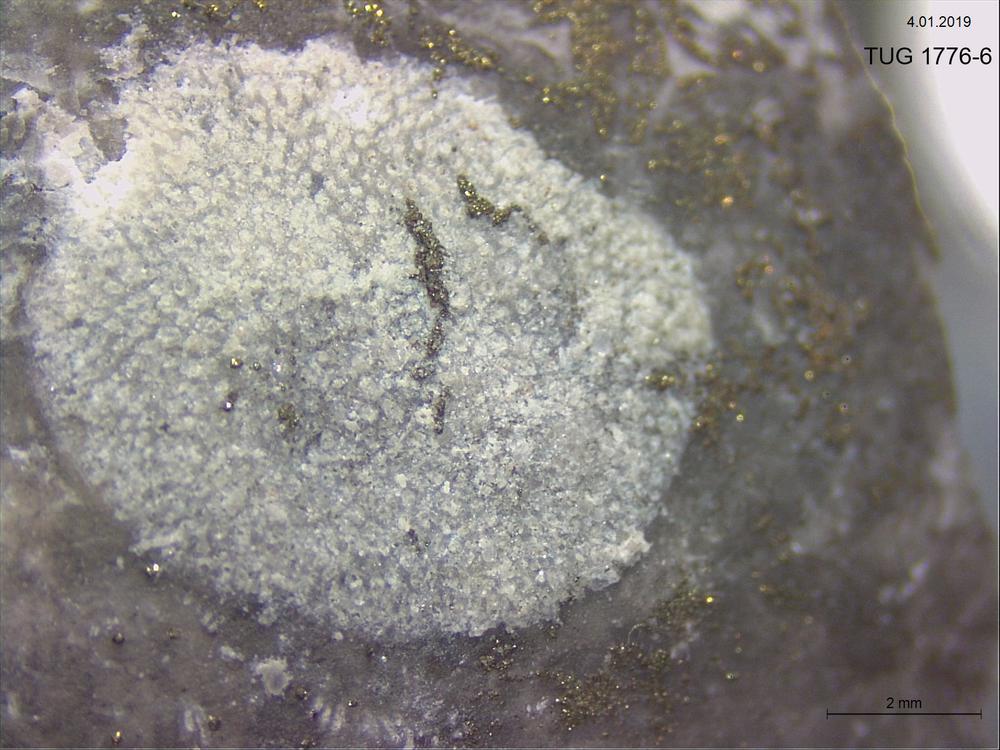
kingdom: Animalia
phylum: Bryozoa
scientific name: Bryozoa
